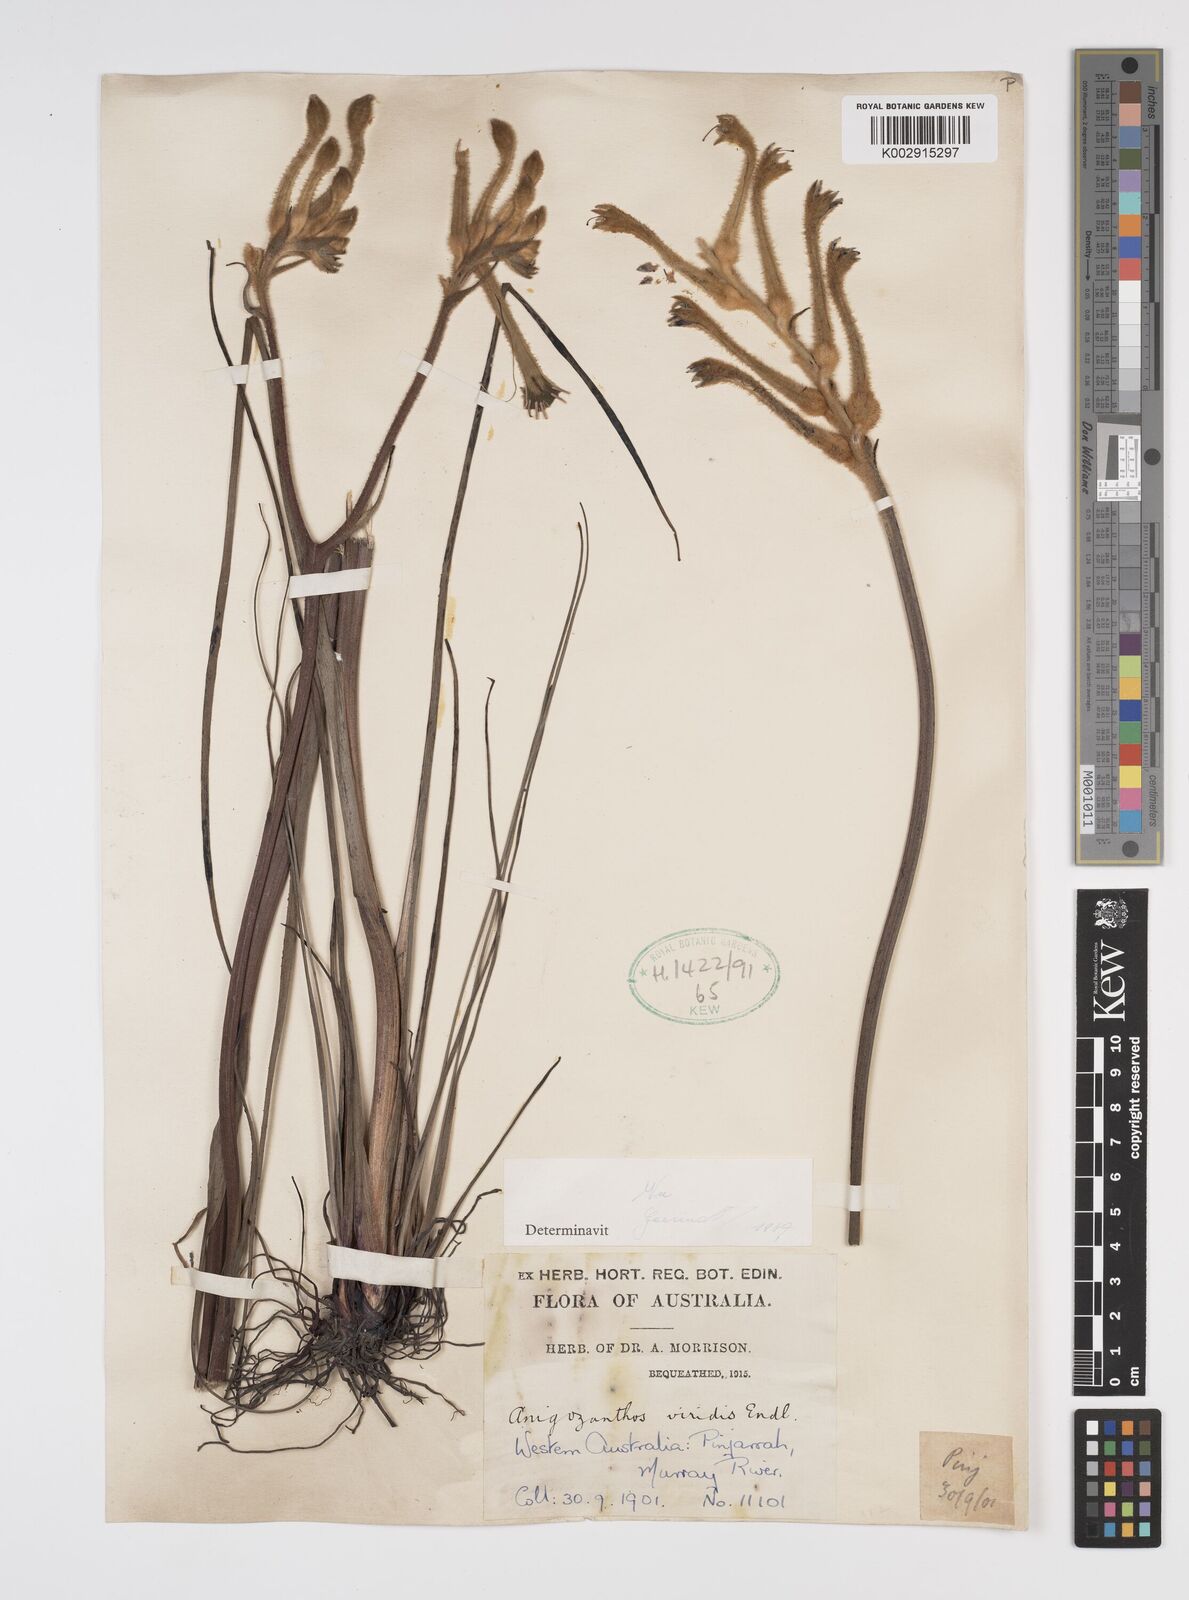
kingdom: Plantae
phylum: Tracheophyta
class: Liliopsida
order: Commelinales
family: Haemodoraceae
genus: Anigozanthos
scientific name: Anigozanthos viridis
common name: Green kangaroo-paw
